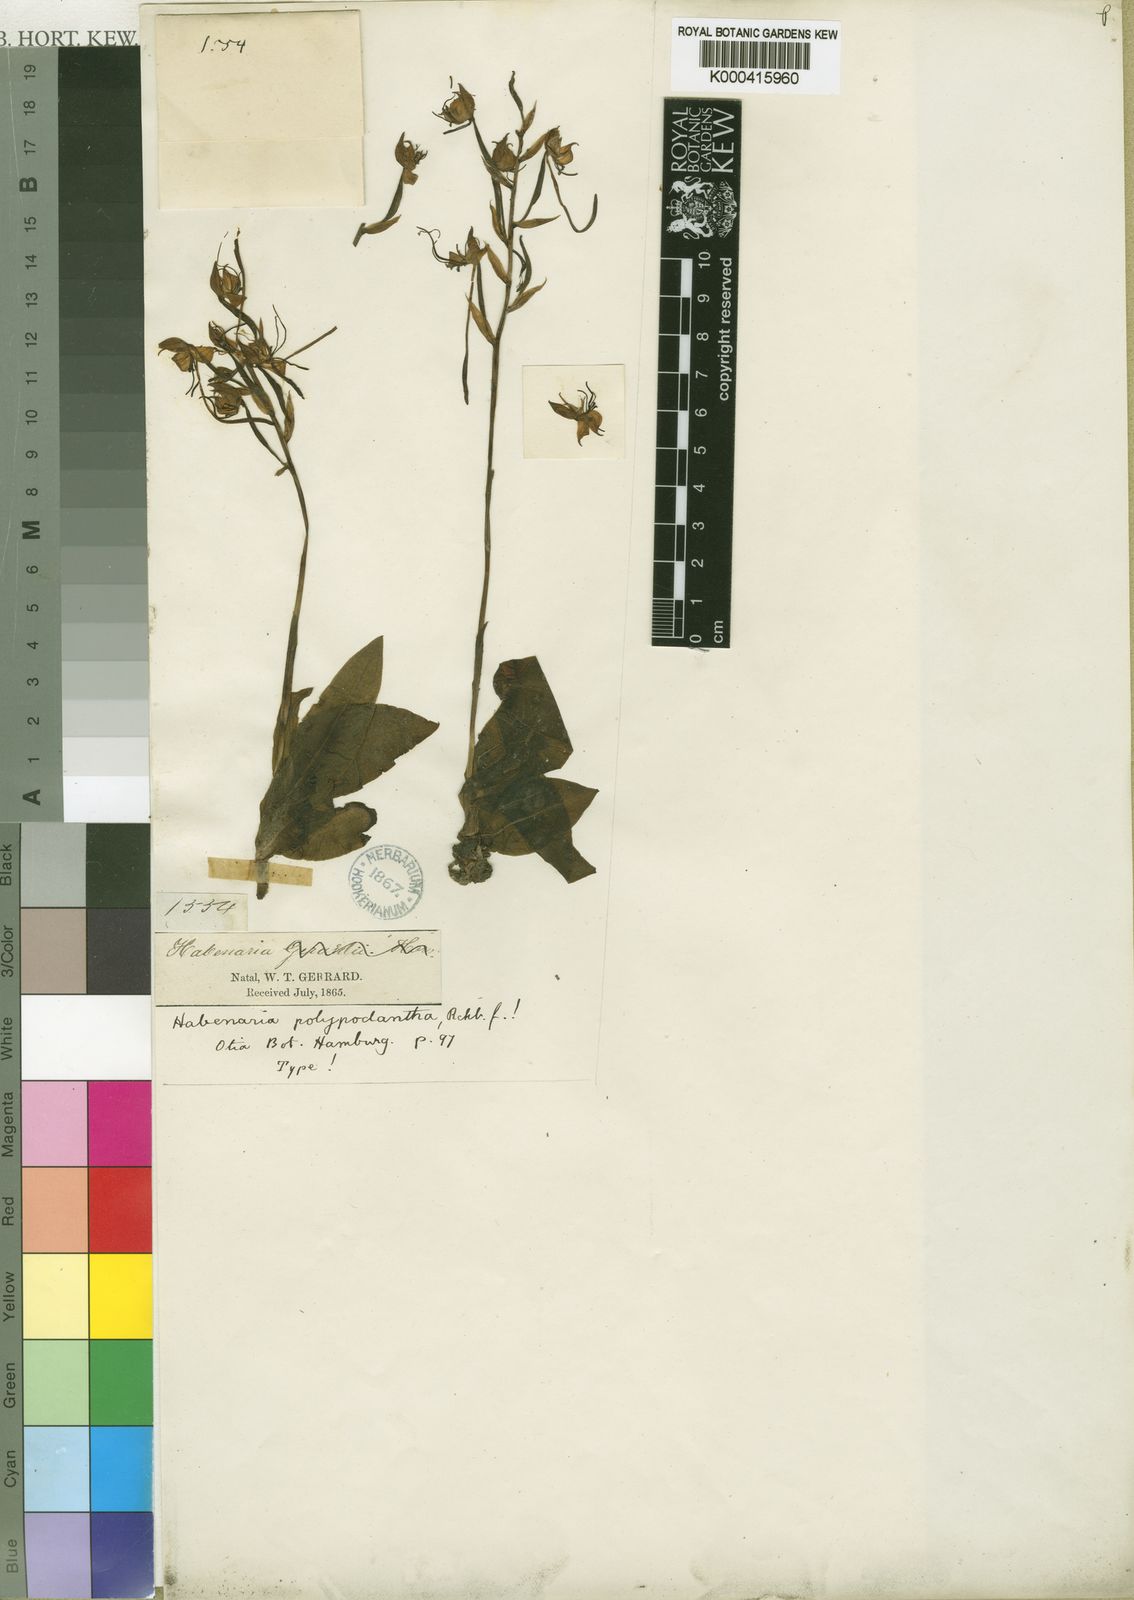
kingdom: Plantae
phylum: Tracheophyta
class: Liliopsida
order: Asparagales
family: Orchidaceae
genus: Bonatea
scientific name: Bonatea polypodantha
